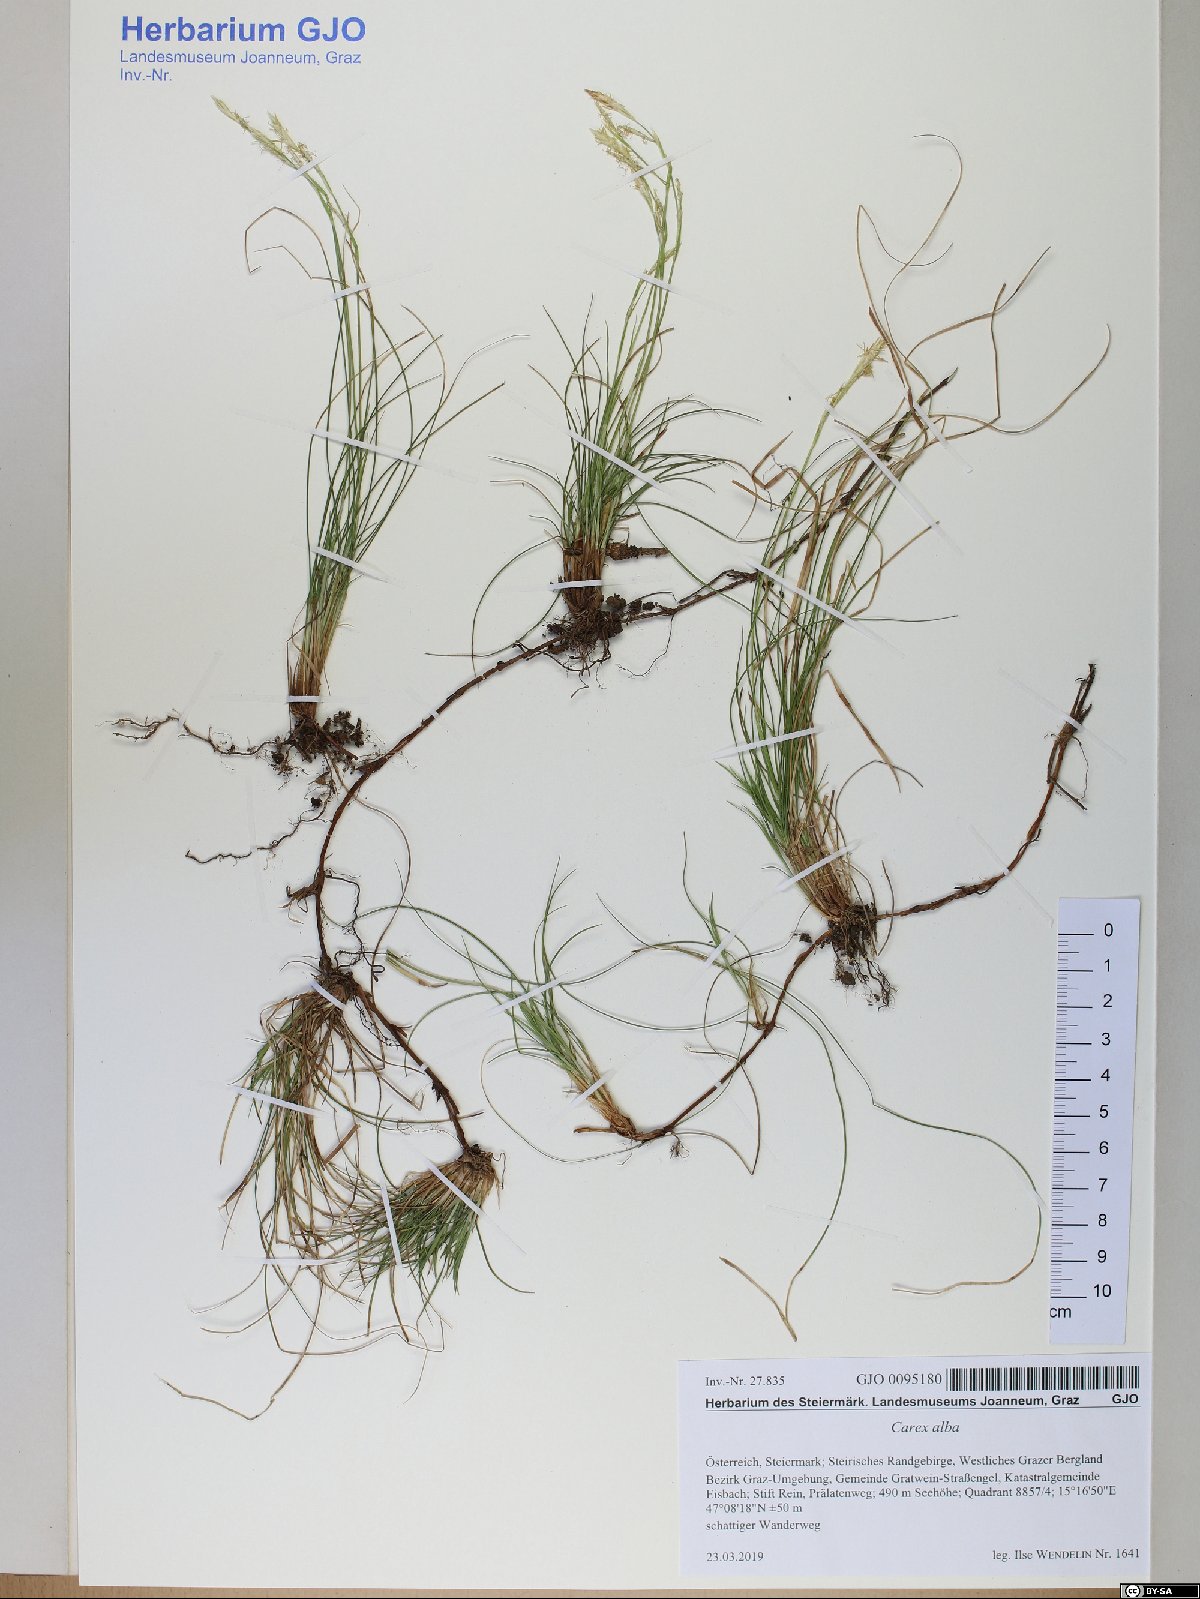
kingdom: Plantae
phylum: Tracheophyta
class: Liliopsida
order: Poales
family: Cyperaceae
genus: Carex
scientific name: Carex alba
